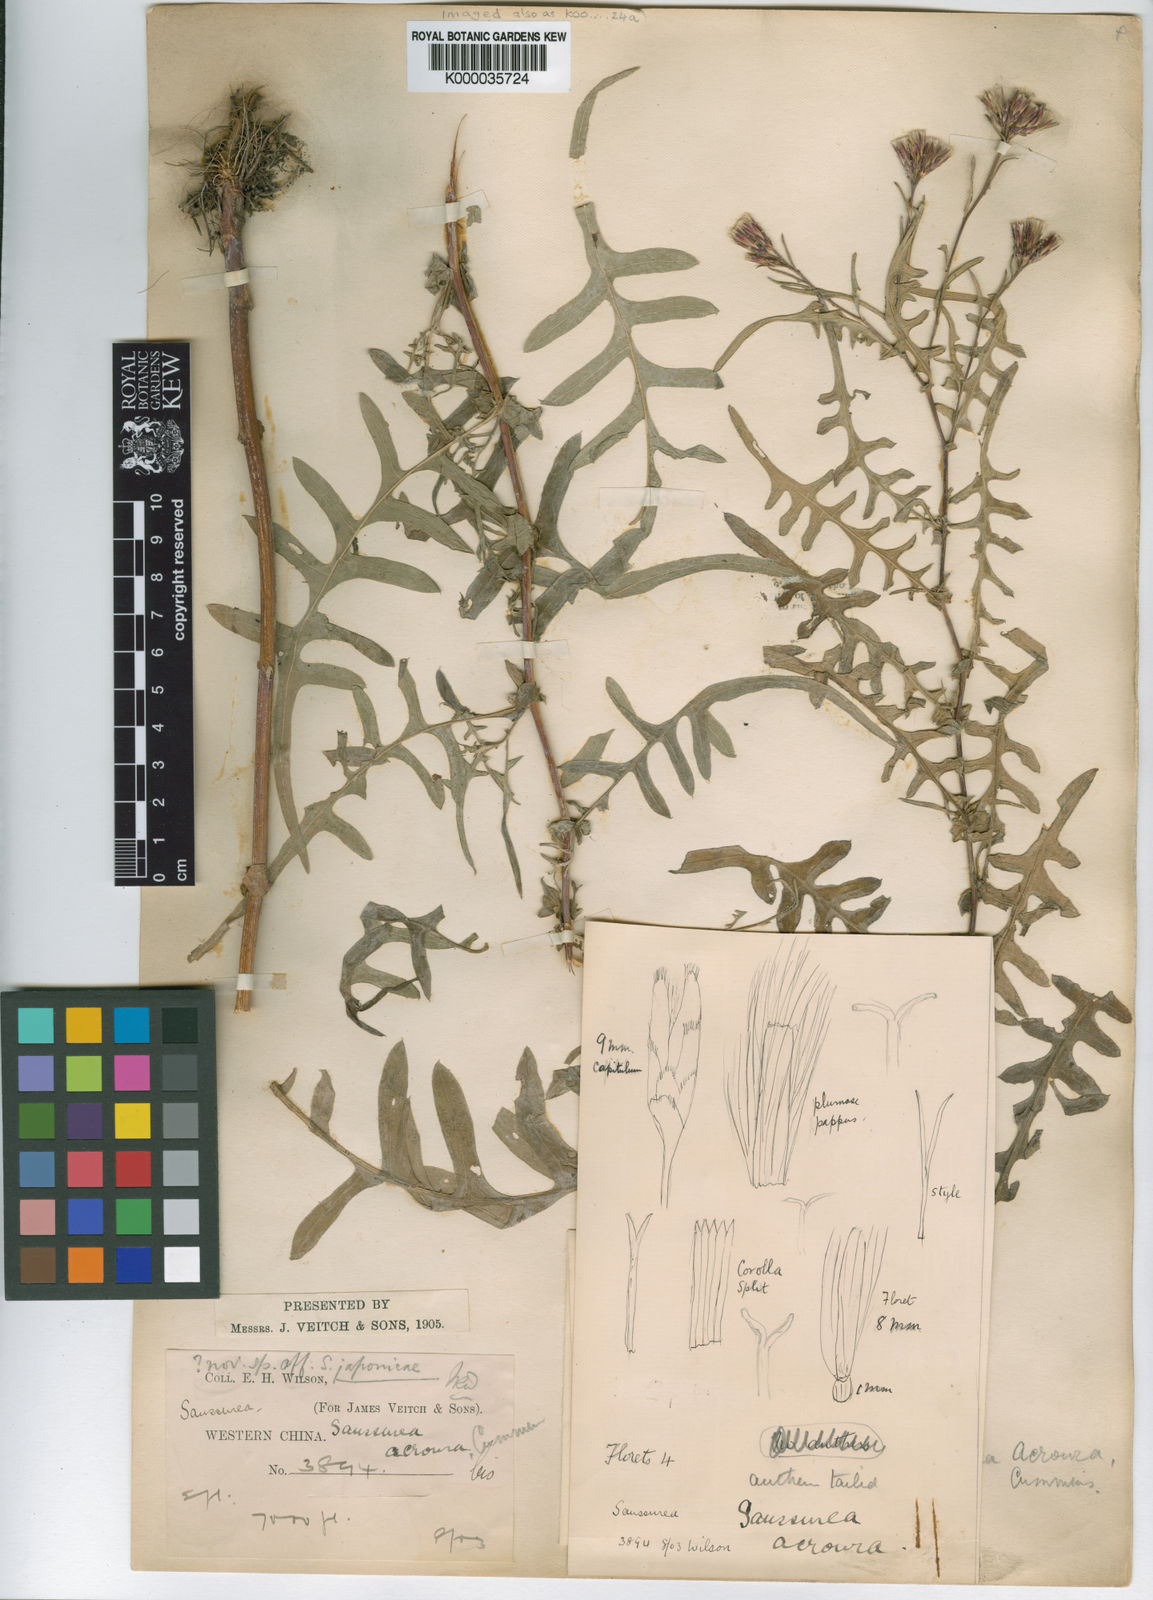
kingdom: Plantae
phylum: Tracheophyta
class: Magnoliopsida
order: Asterales
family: Asteraceae
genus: Saussurea
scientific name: Saussurea acroura
